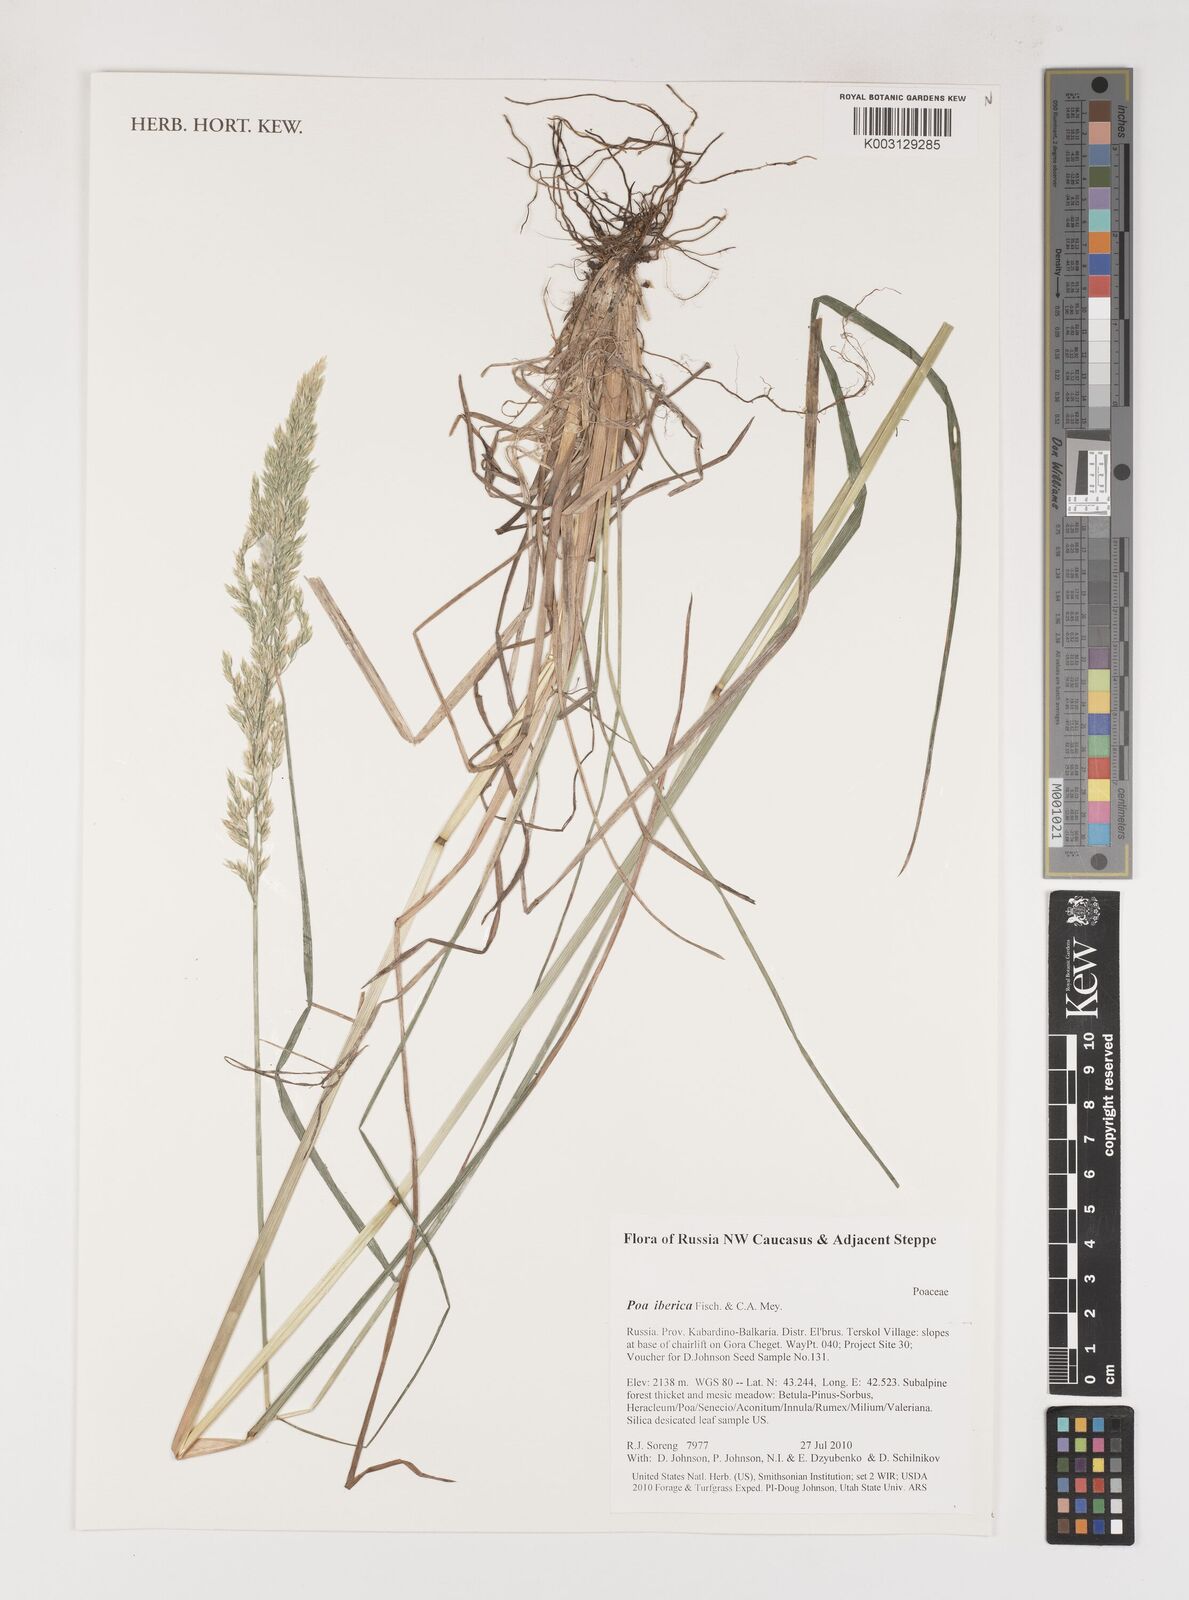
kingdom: Plantae
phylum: Tracheophyta
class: Liliopsida
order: Poales
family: Poaceae
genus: Poa
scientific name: Poa iberica
